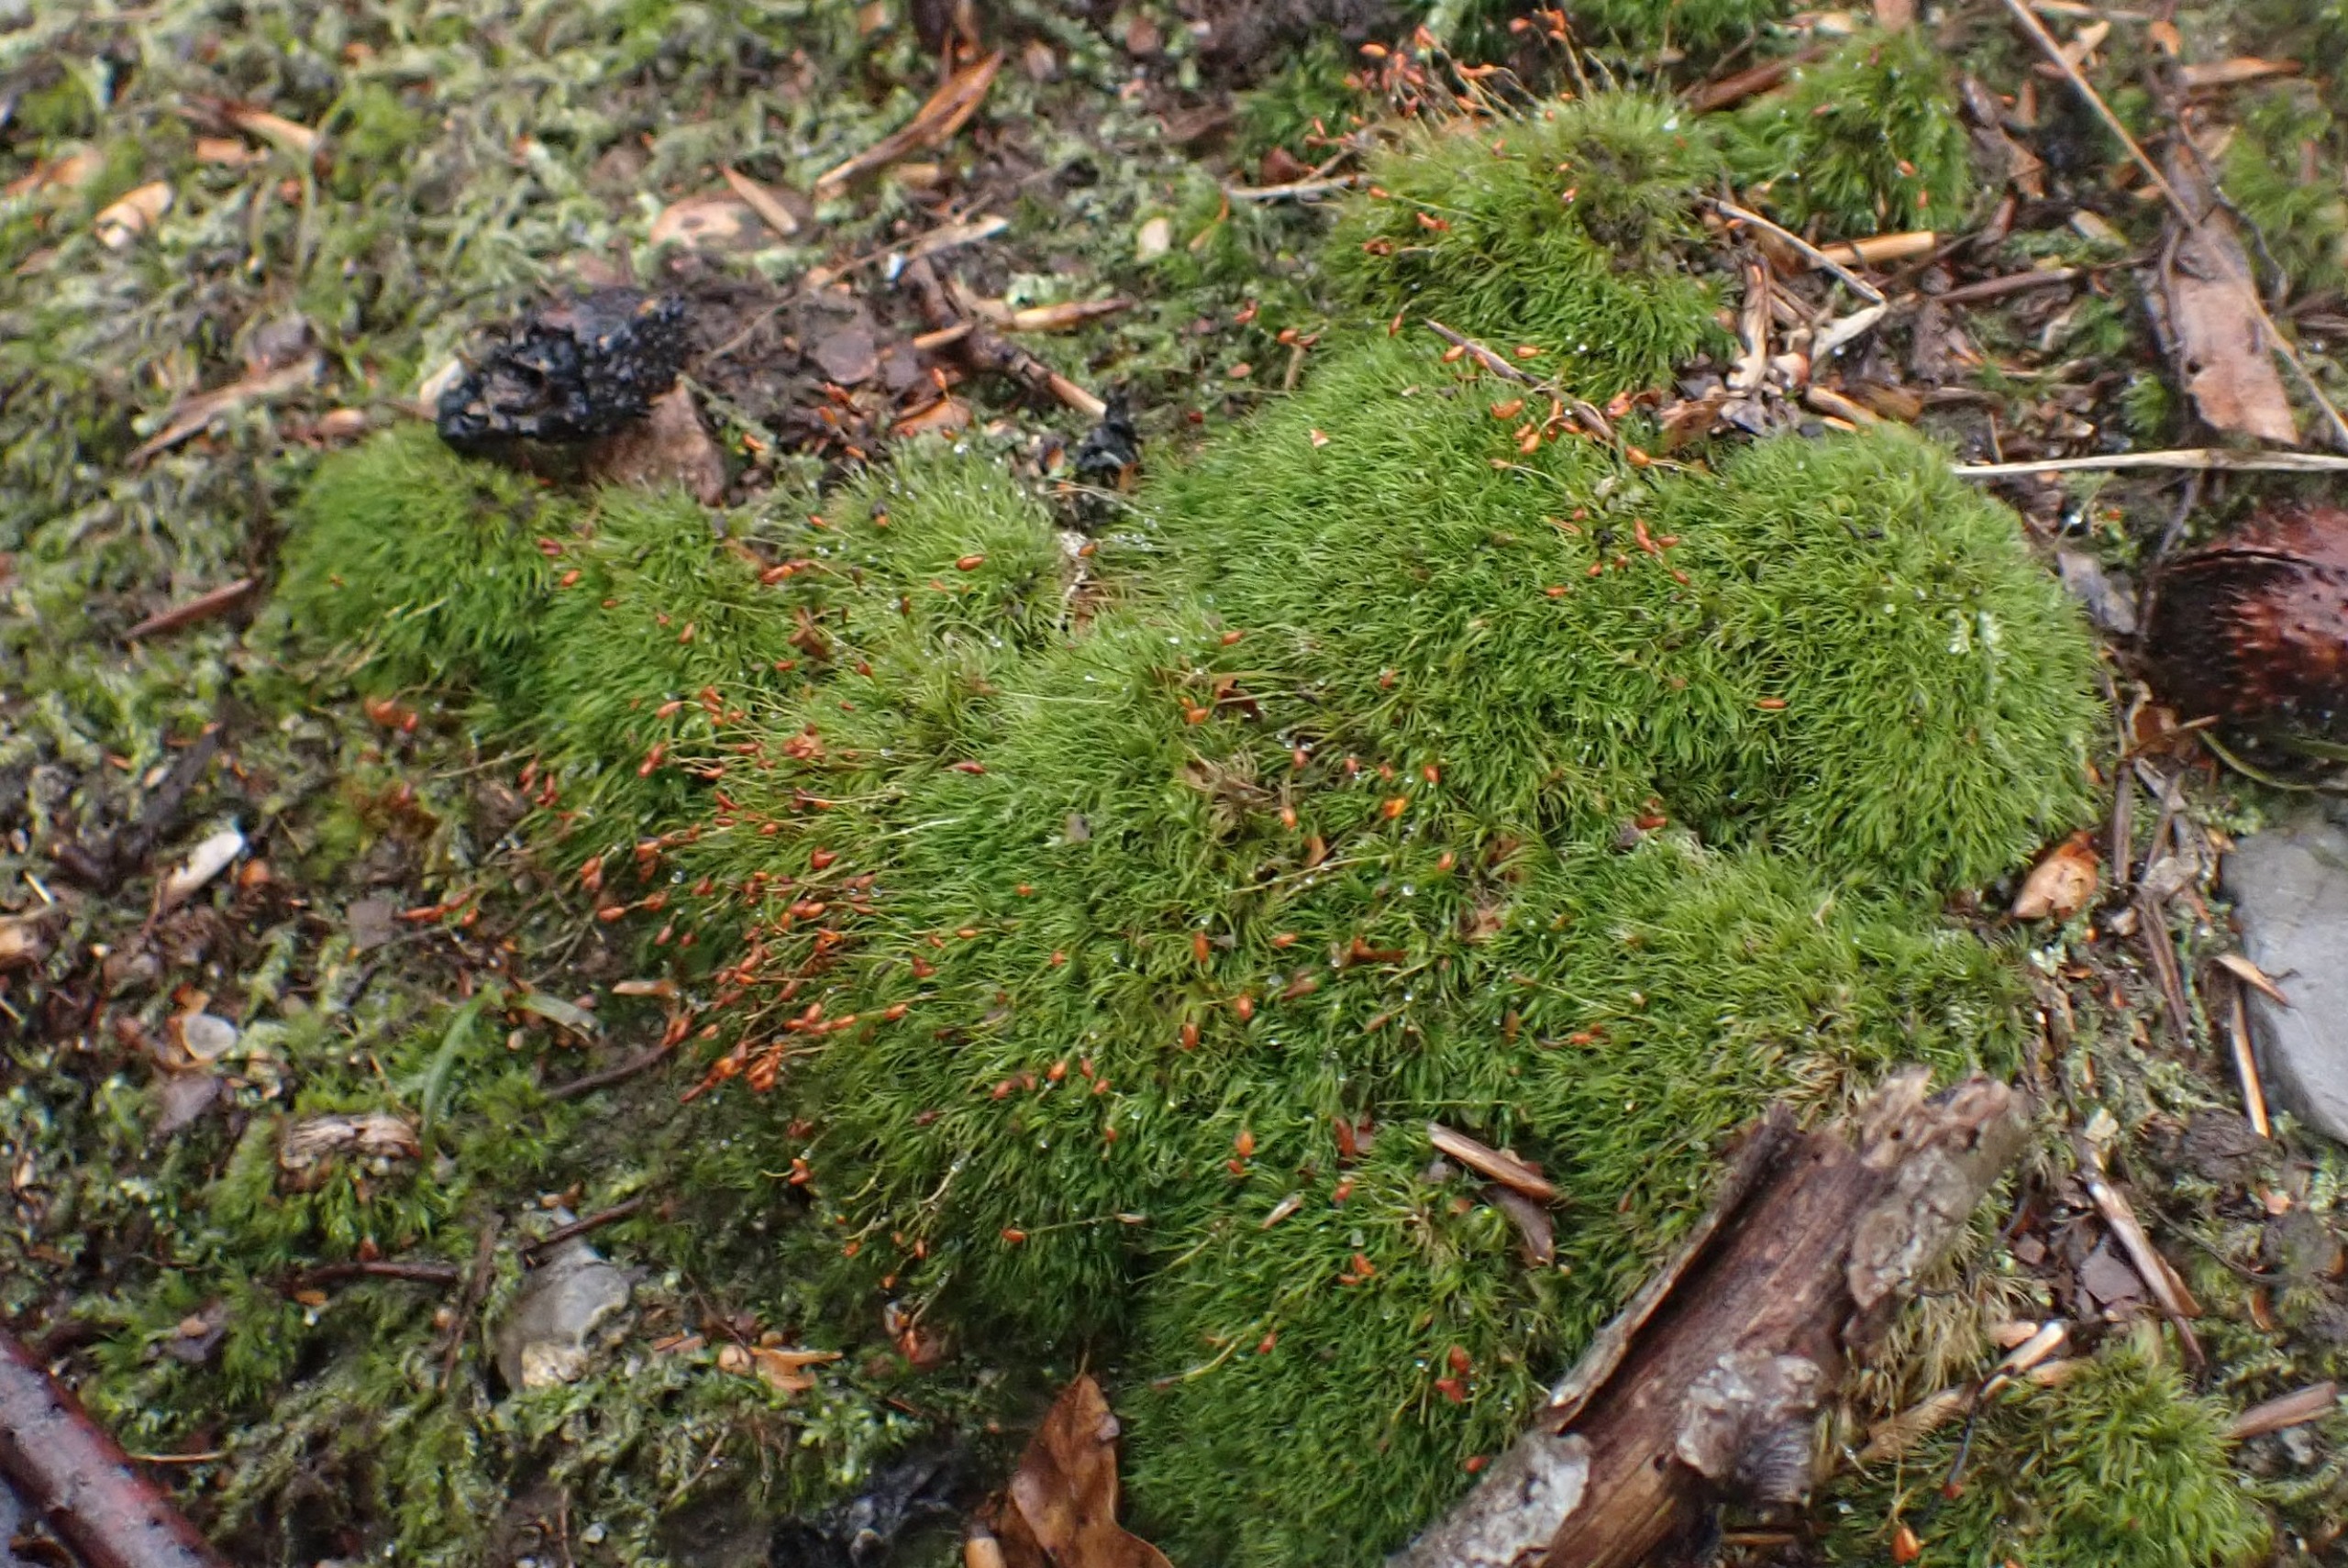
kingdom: Plantae
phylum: Bryophyta
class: Bryopsida
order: Dicranales
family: Dicranellaceae
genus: Dicranella
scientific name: Dicranella heteromalla
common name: Almindelig fløjlsmos
